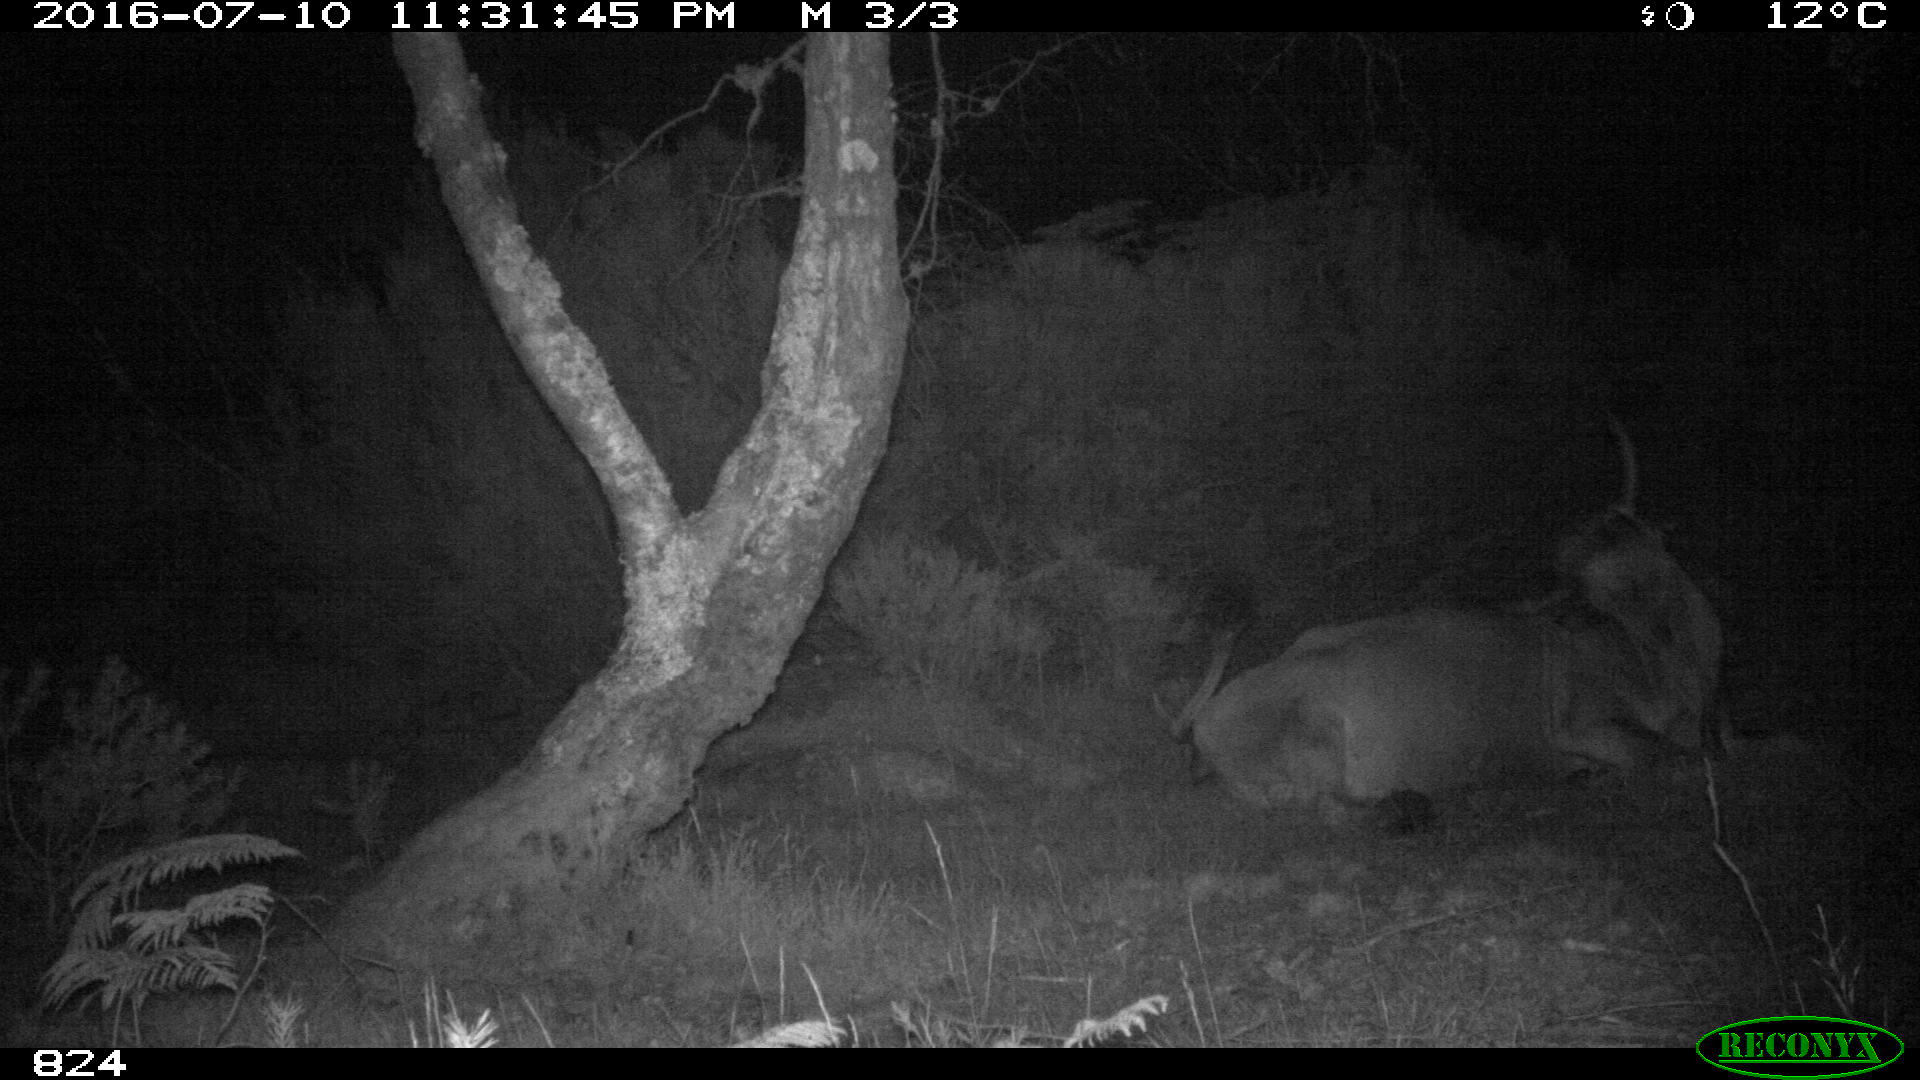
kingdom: Animalia
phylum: Chordata
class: Mammalia
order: Artiodactyla
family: Bovidae
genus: Bos
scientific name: Bos taurus
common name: Domesticated cattle
